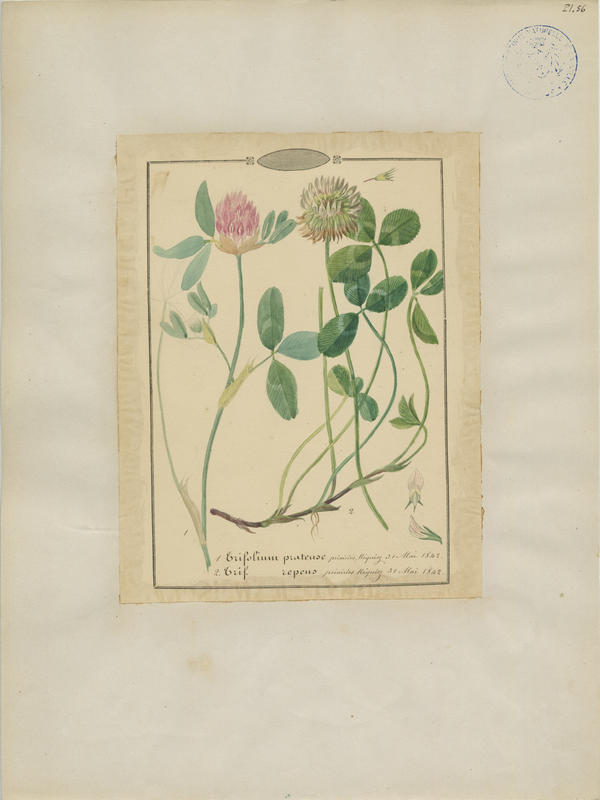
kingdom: Plantae
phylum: Tracheophyta
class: Magnoliopsida
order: Fabales
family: Fabaceae
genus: Trifolium
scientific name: Trifolium repens
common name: White clover
